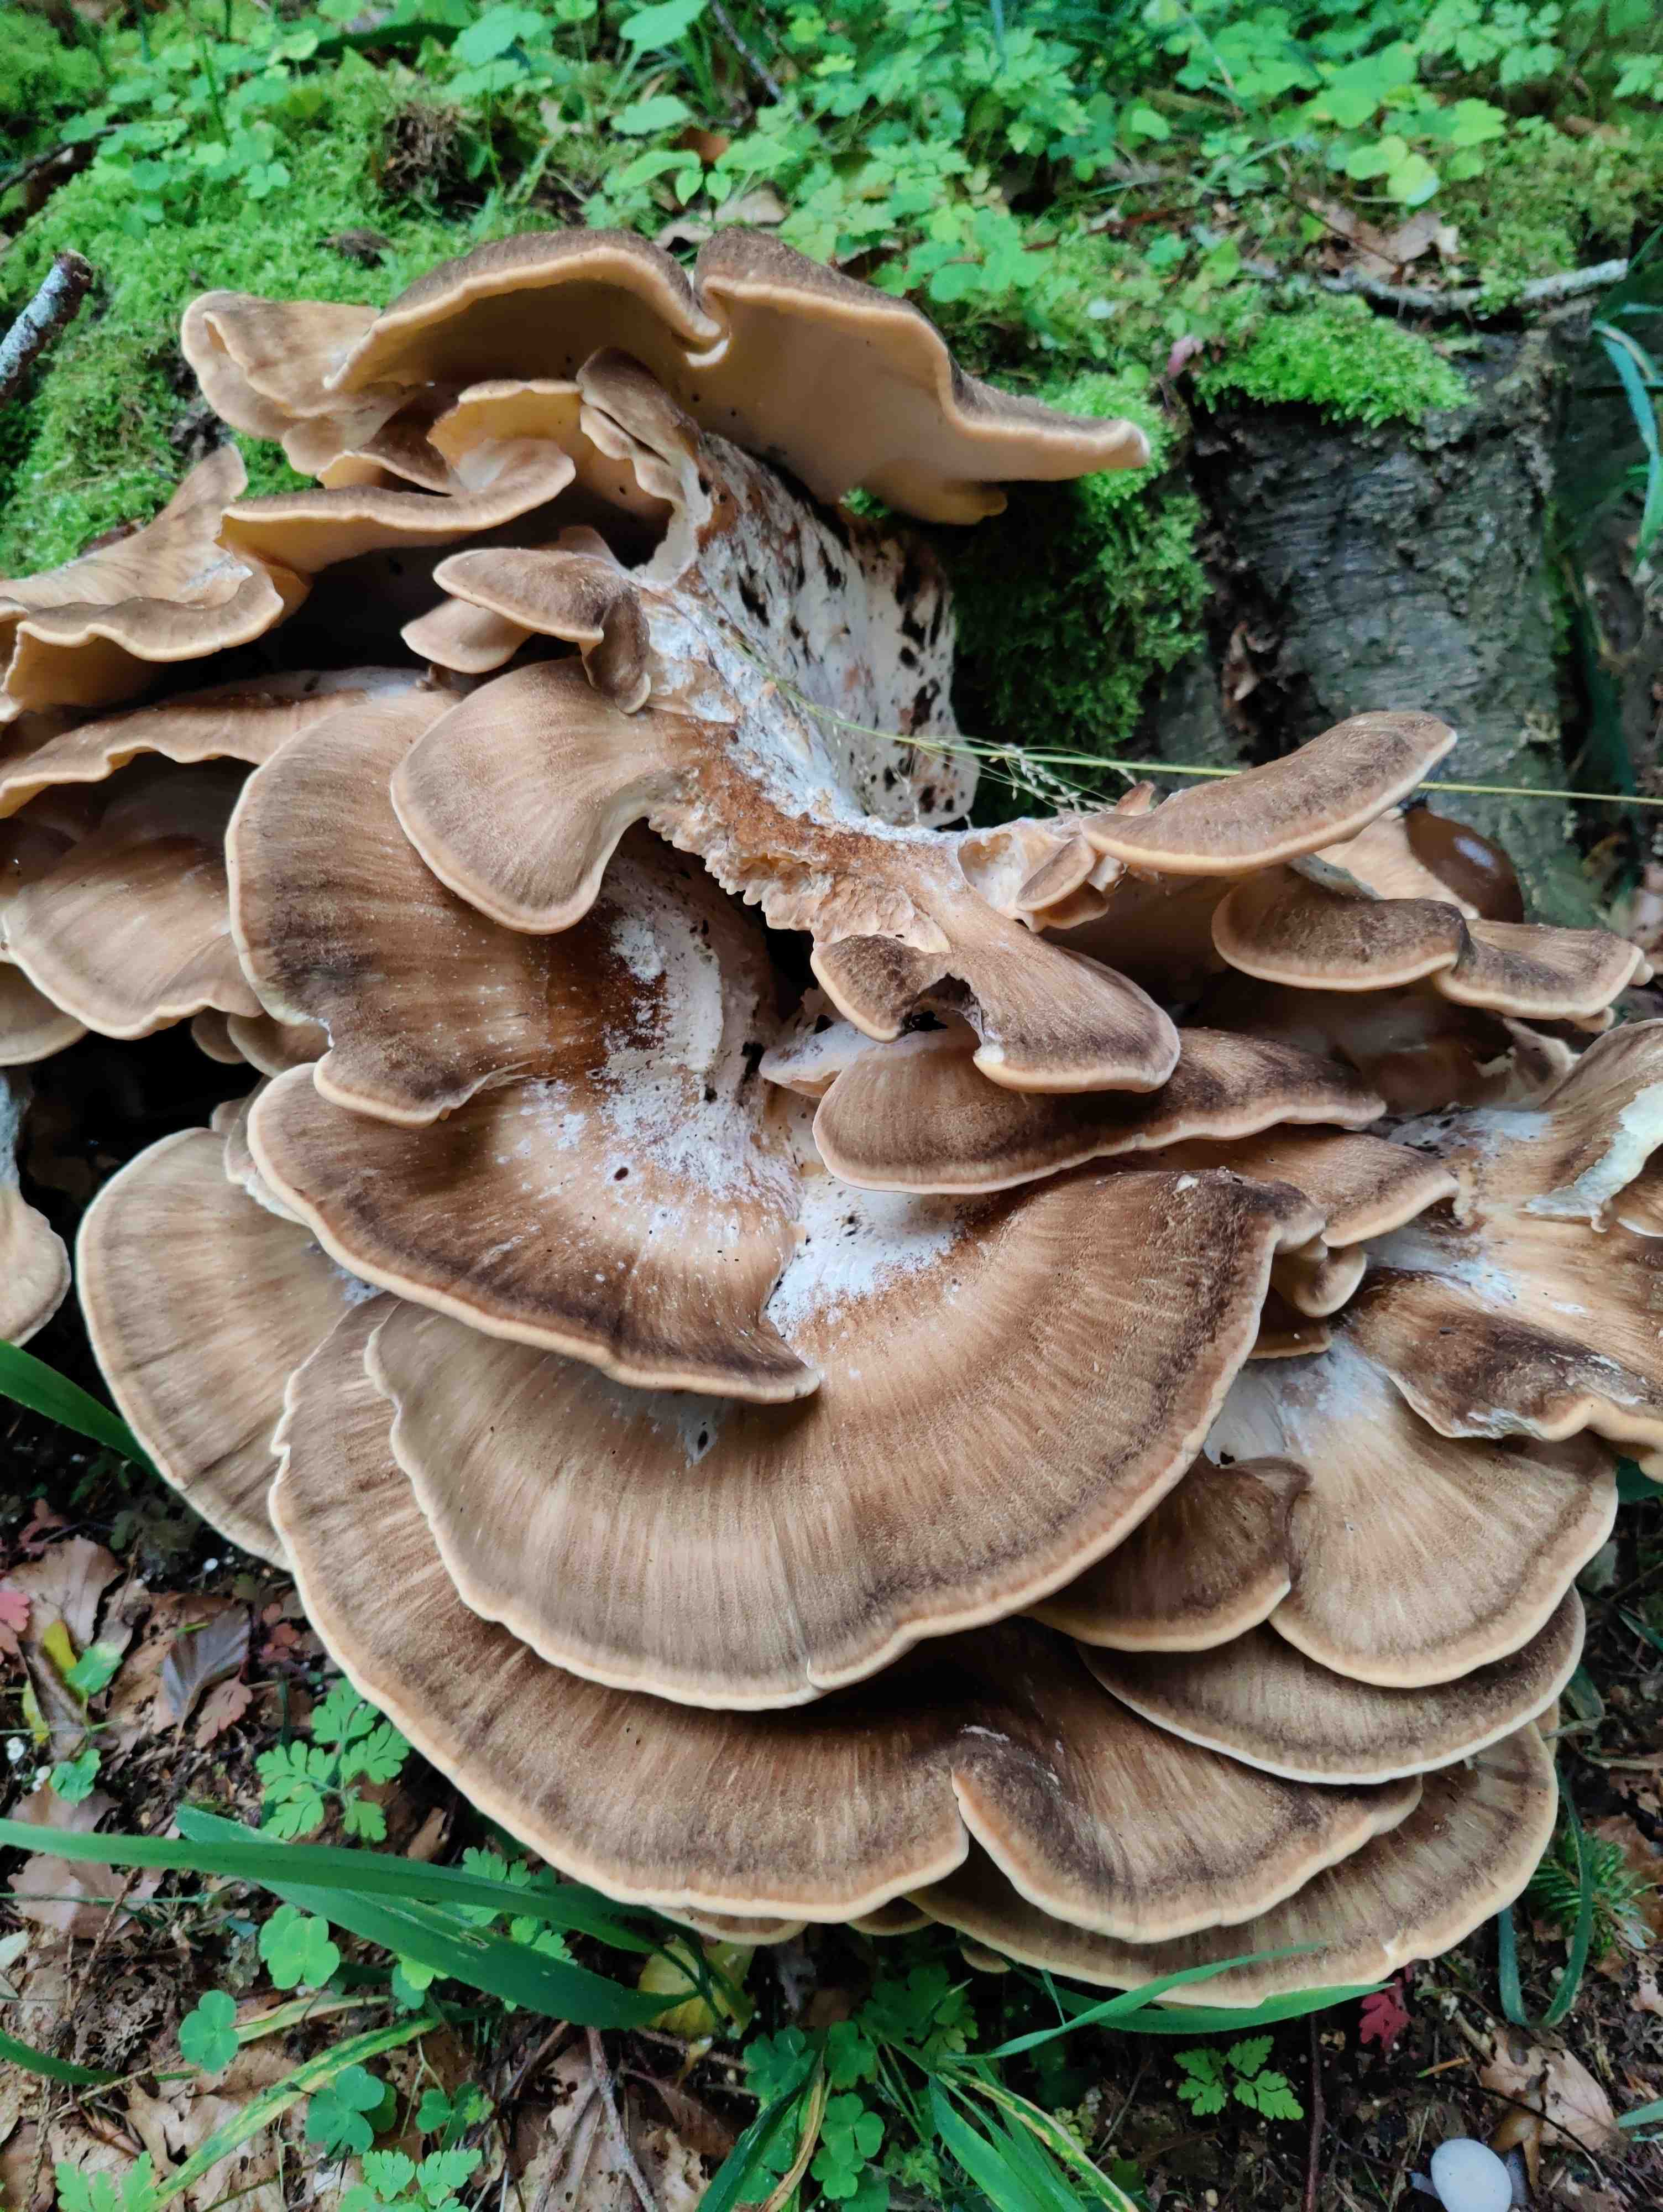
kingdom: Fungi
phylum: Basidiomycota
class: Agaricomycetes
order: Polyporales
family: Meripilaceae
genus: Meripilus
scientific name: Meripilus giganteus
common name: kæmpeporesvamp
